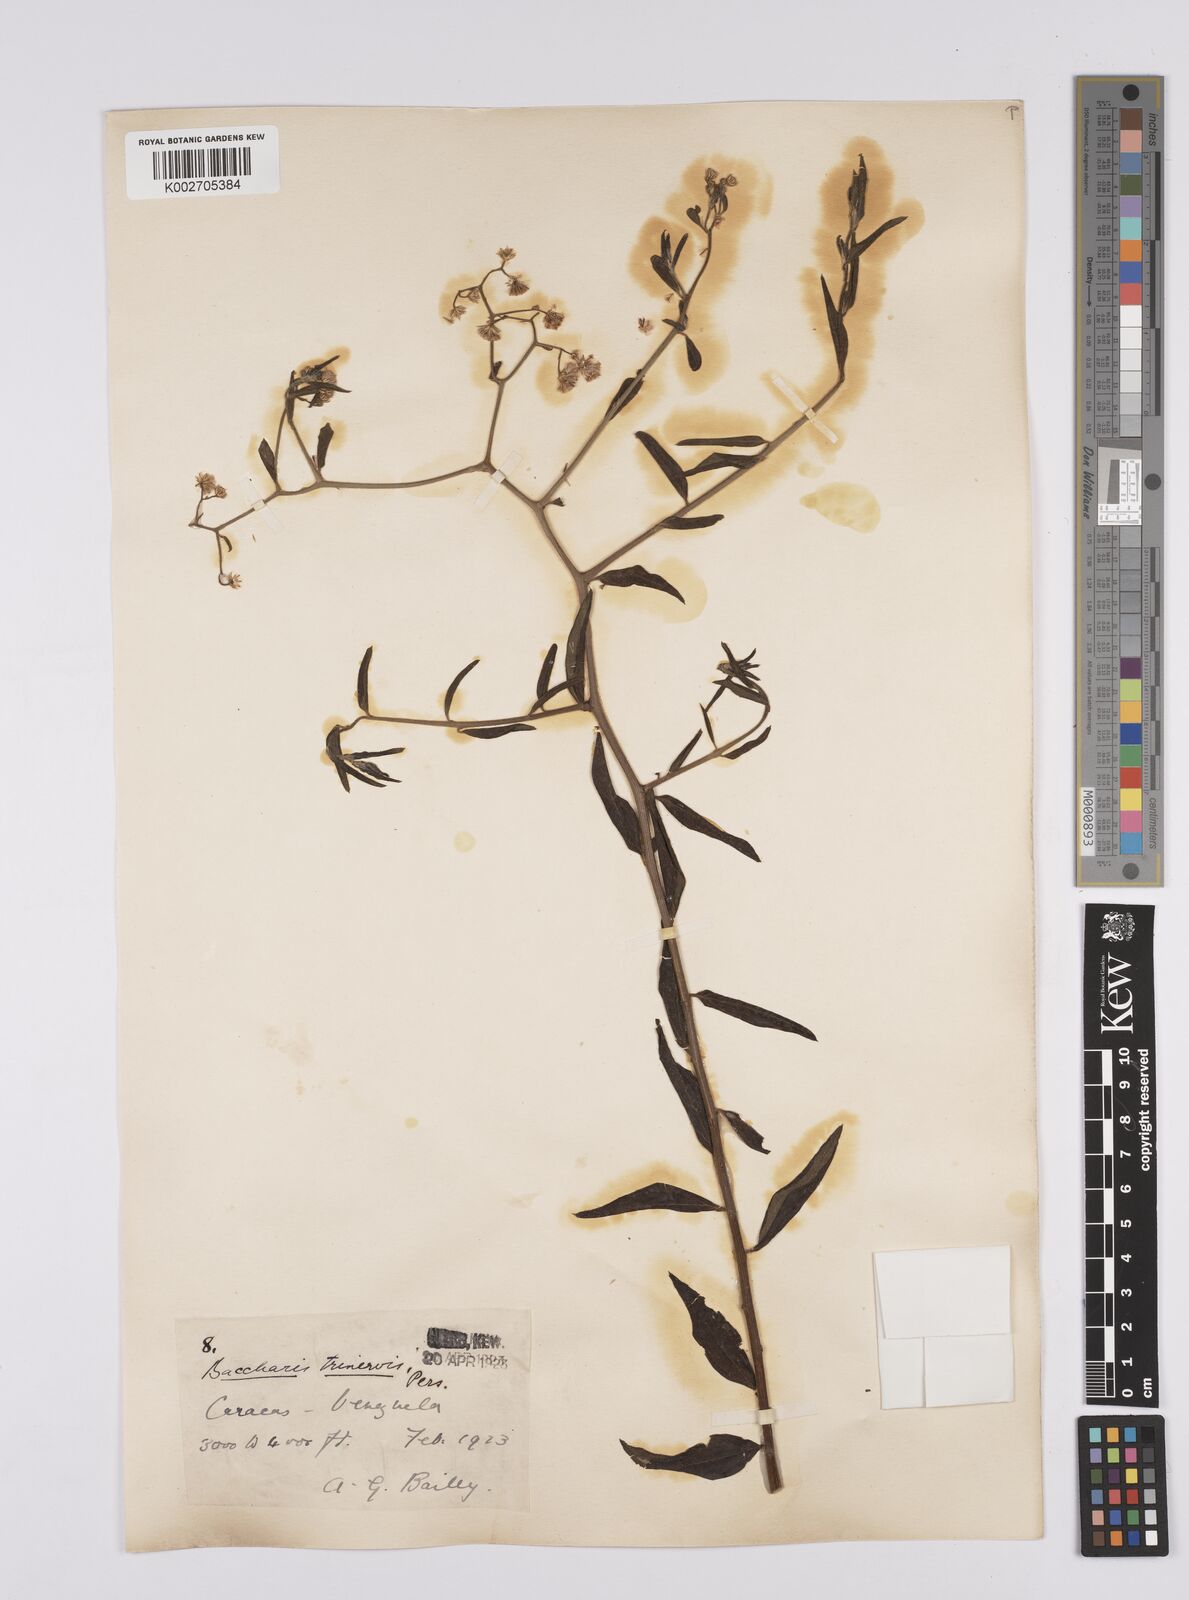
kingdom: Plantae
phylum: Tracheophyta
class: Magnoliopsida
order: Asterales
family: Asteraceae
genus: Baccharis
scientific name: Baccharis trinervis
